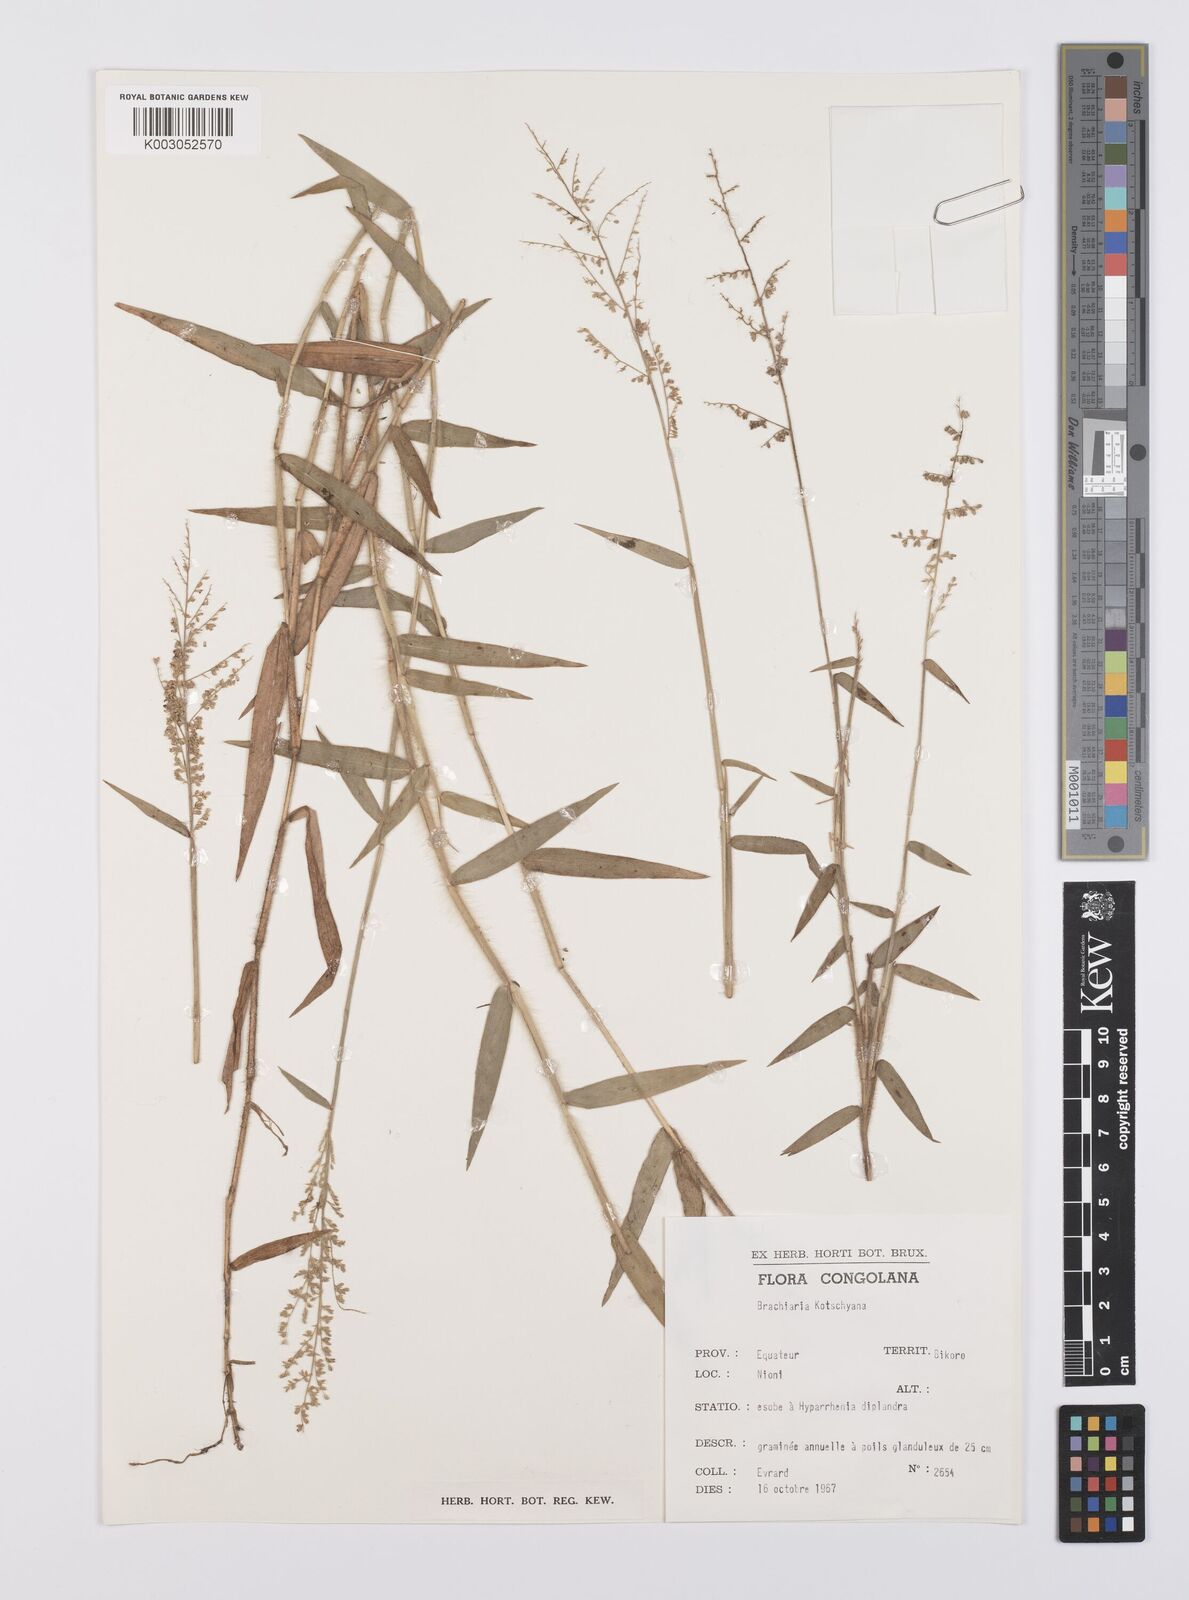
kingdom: Plantae
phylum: Tracheophyta
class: Liliopsida
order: Poales
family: Poaceae
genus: Urochloa
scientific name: Urochloa comata
